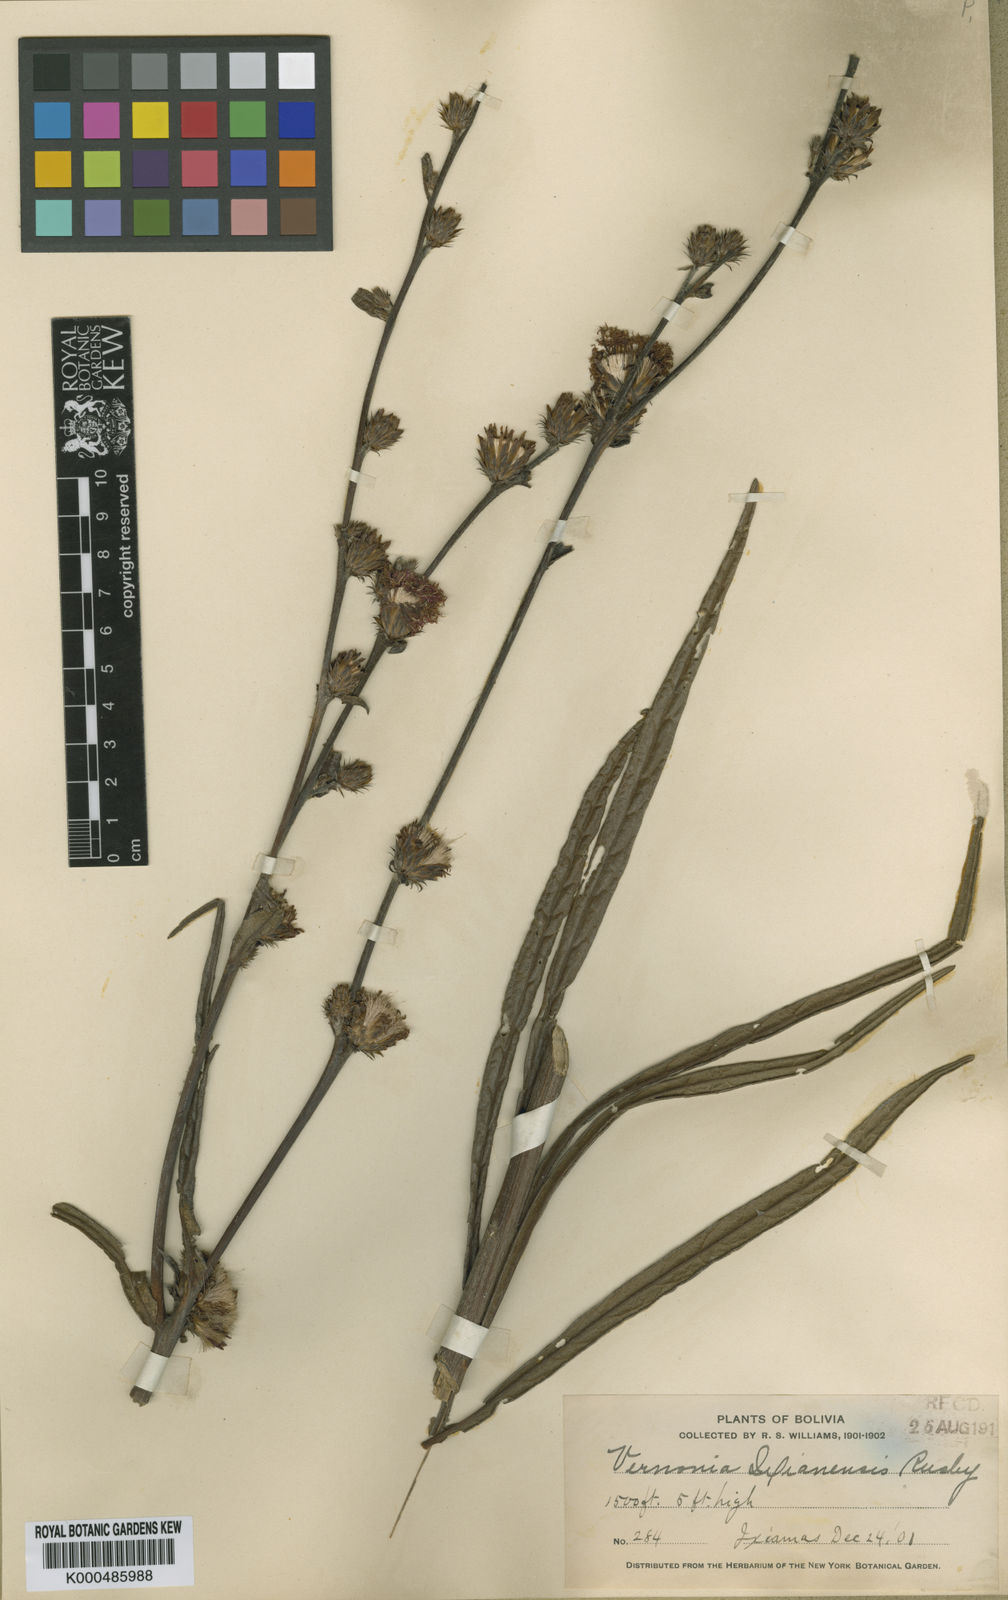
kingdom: Plantae
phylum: Tracheophyta
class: Magnoliopsida
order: Asterales
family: Asteraceae
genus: Lessingianthus
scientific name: Lessingianthus ixiamensis
